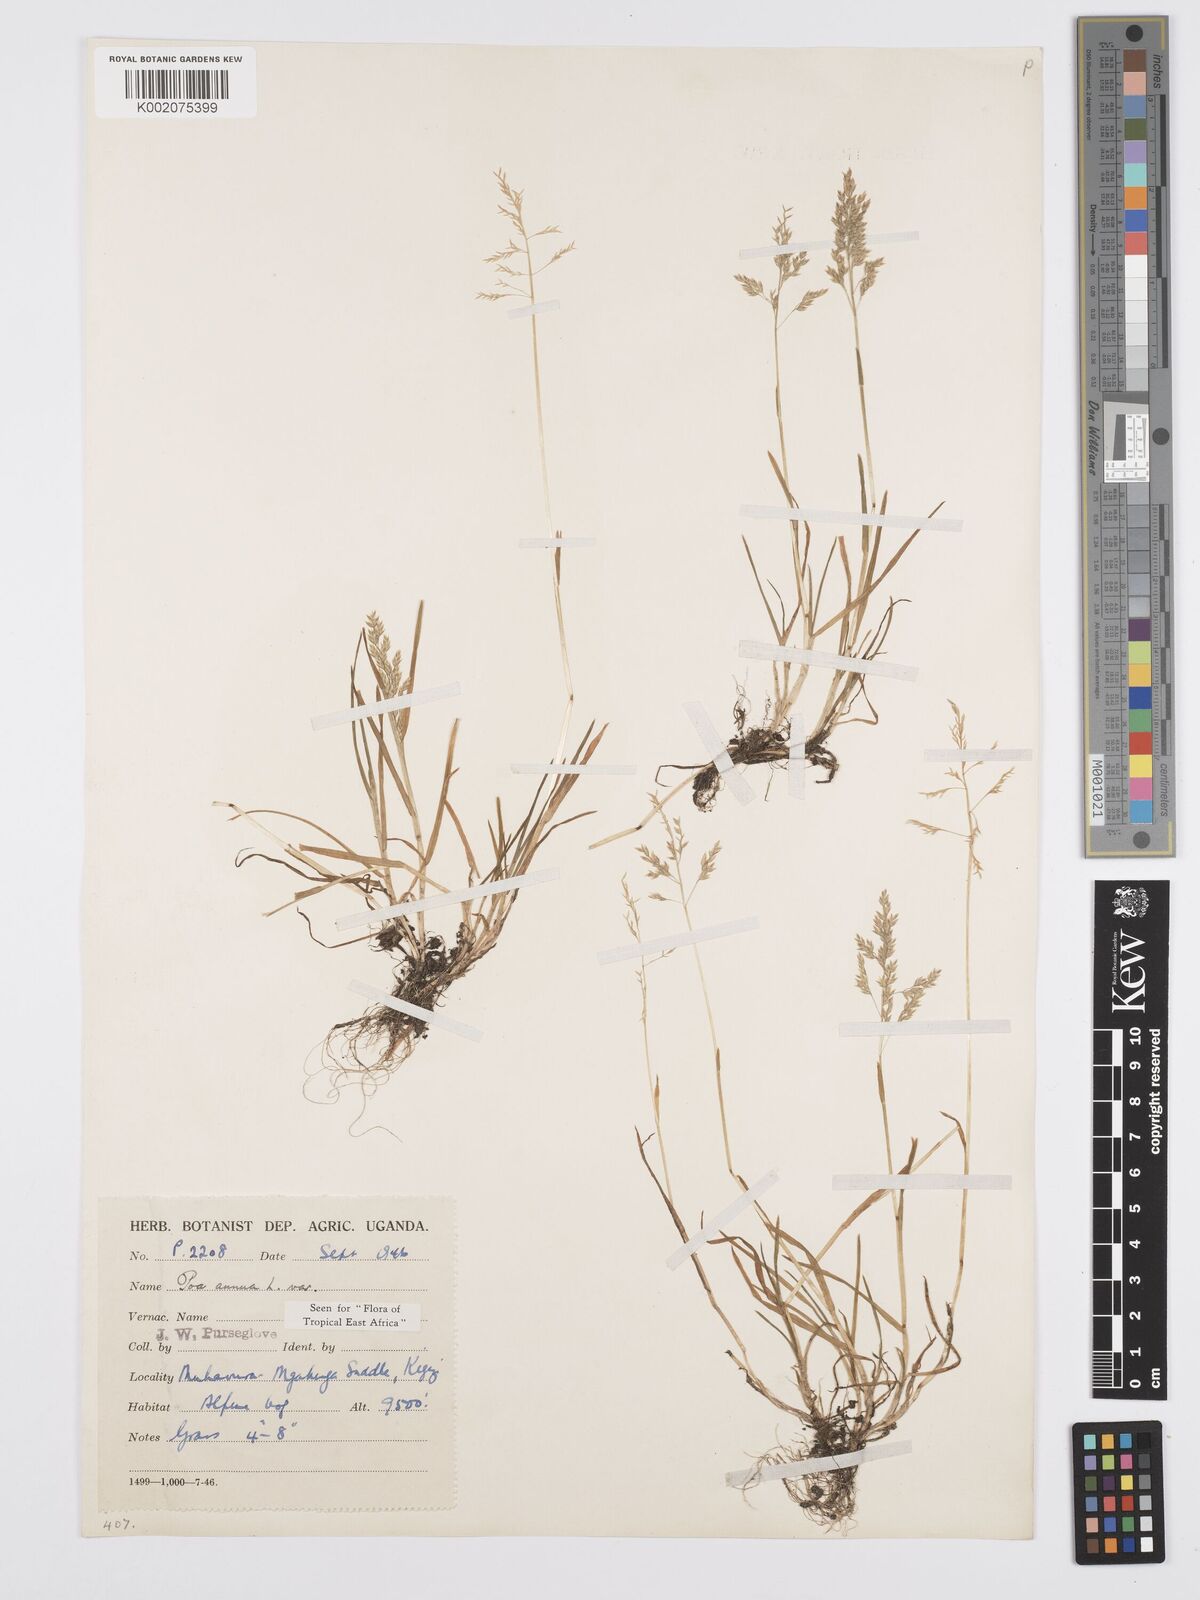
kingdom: Plantae
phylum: Tracheophyta
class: Liliopsida
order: Poales
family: Poaceae
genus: Poa
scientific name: Poa annua
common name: Annual bluegrass
